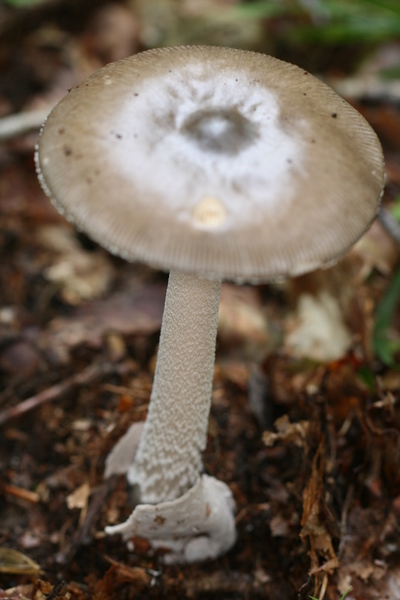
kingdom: Fungi
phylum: Basidiomycota
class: Agaricomycetes
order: Agaricales
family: Amanitaceae
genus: Amanita
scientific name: Amanita vaginata
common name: grå kam-fluesvamp
